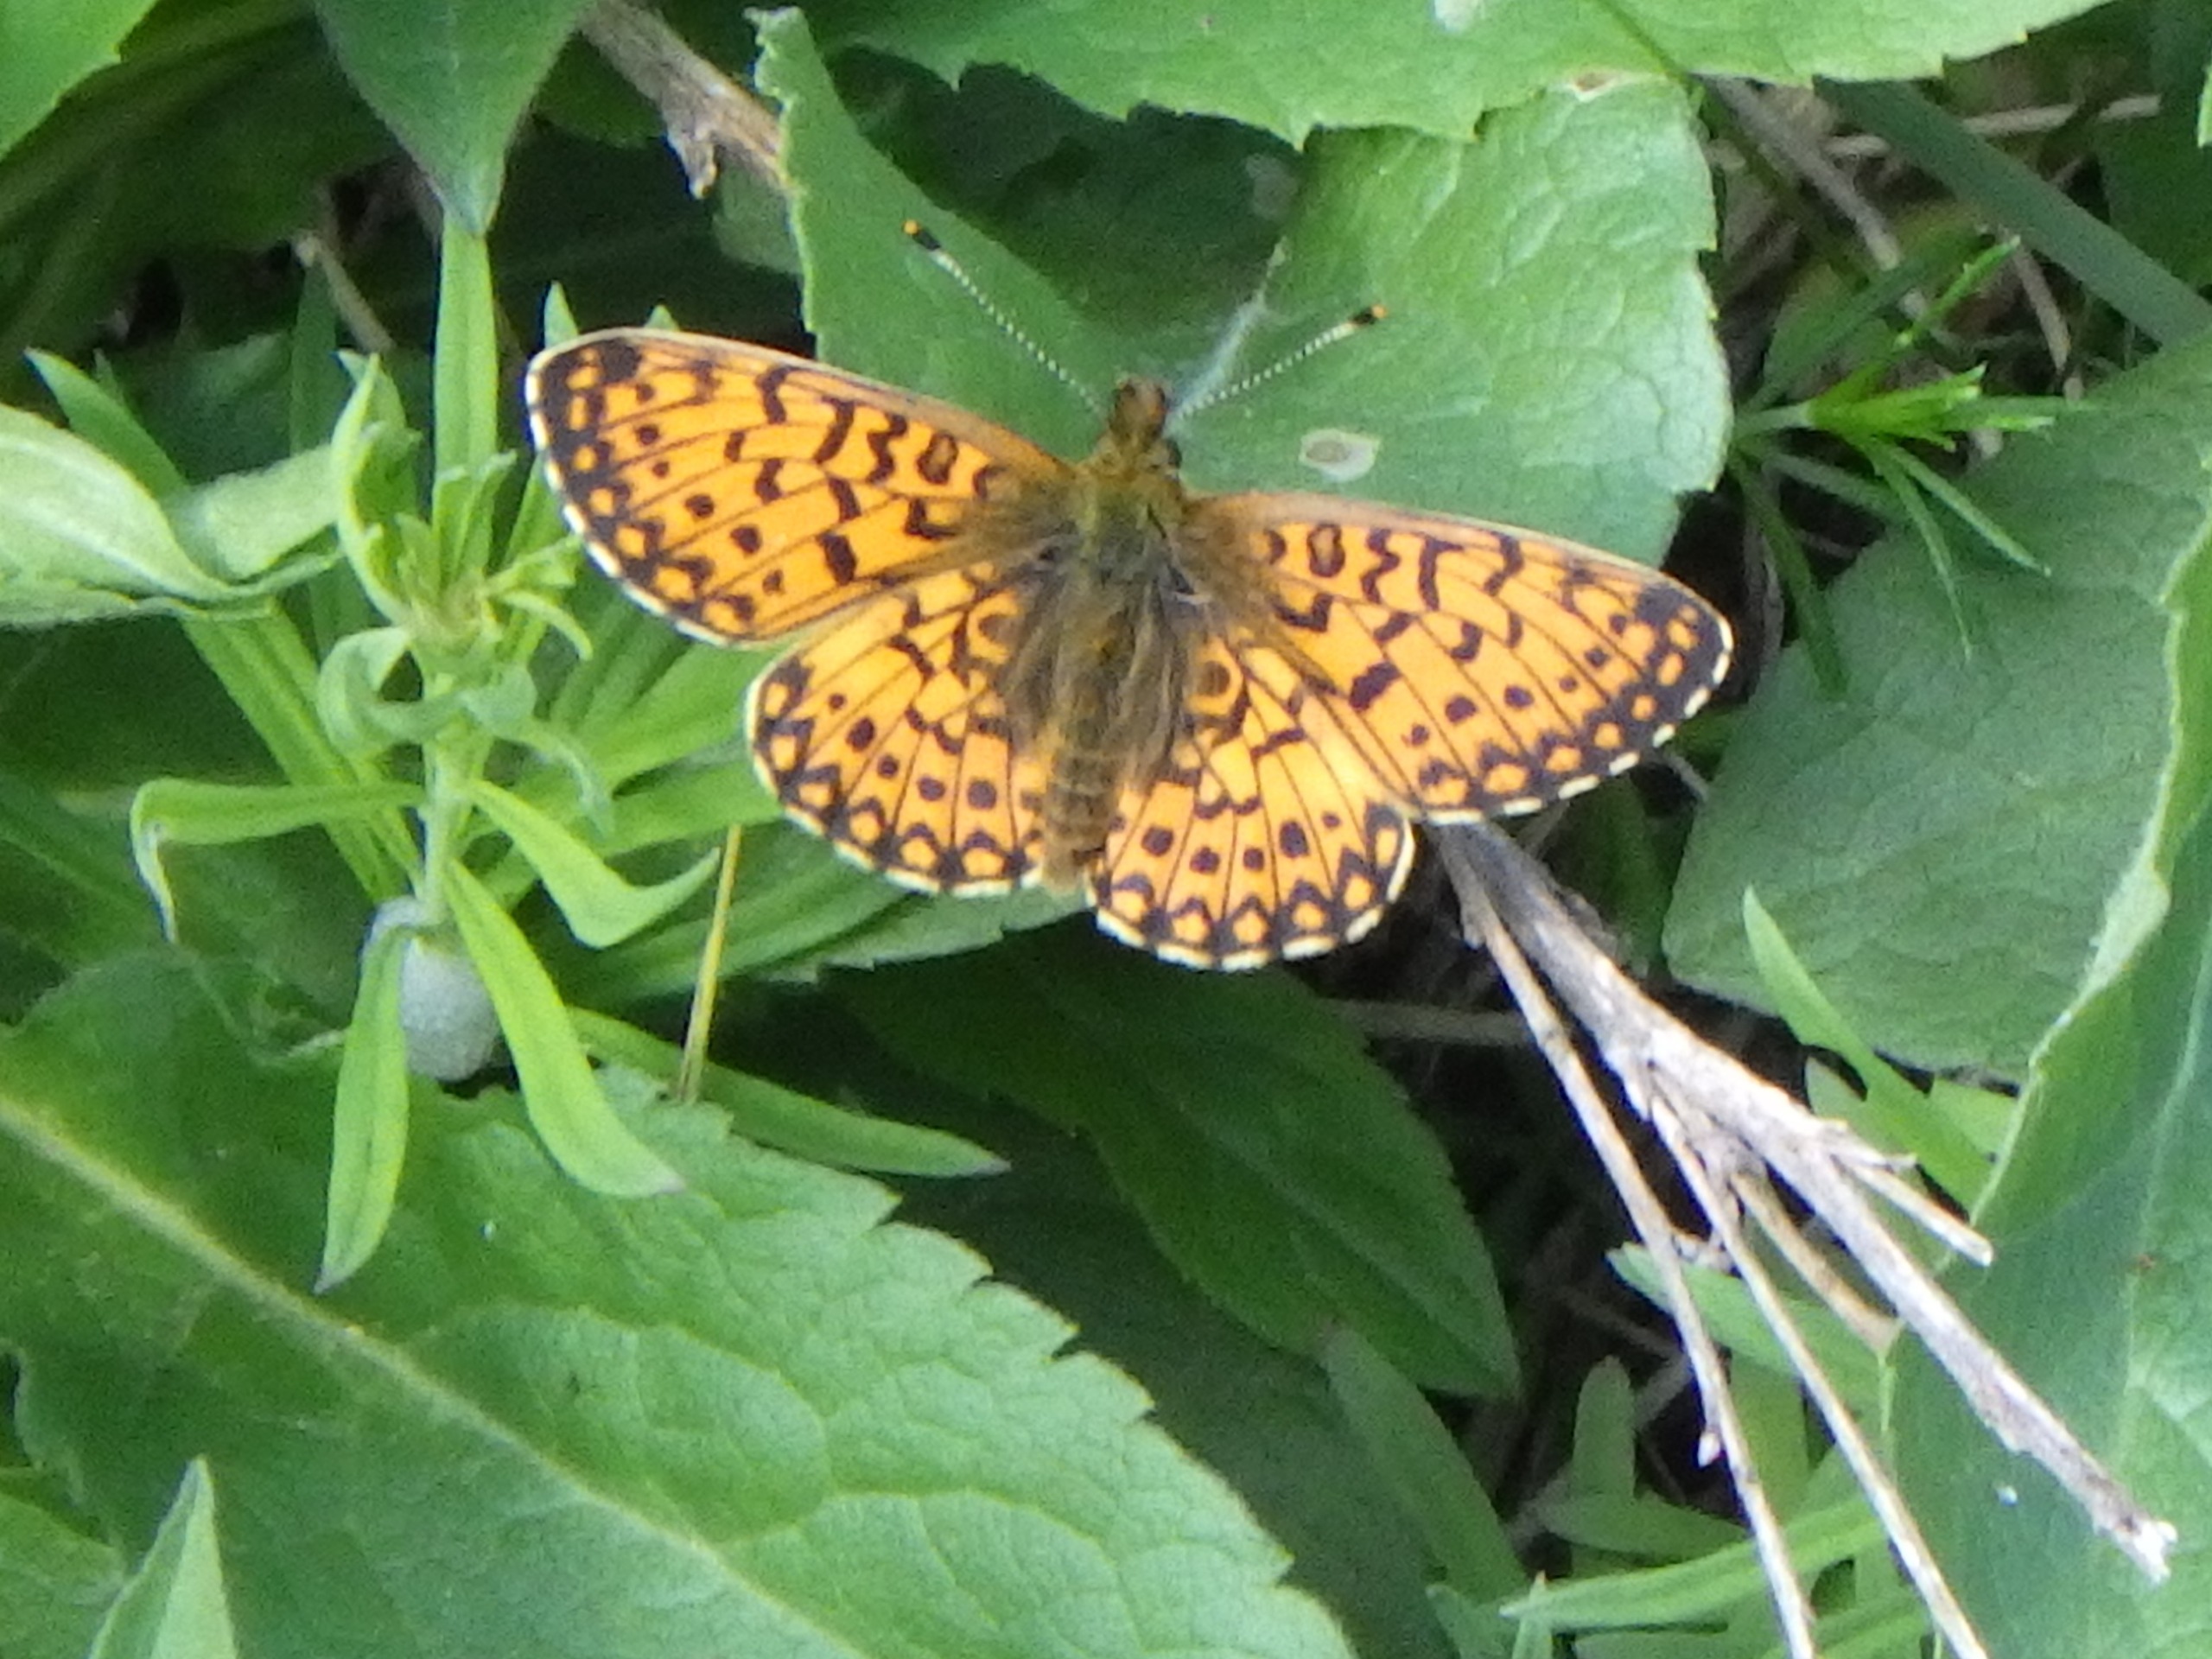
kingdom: Animalia
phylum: Arthropoda
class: Insecta
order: Lepidoptera
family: Nymphalidae
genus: Boloria
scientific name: Boloria selene
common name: Brunlig perlemorsommerfugl
